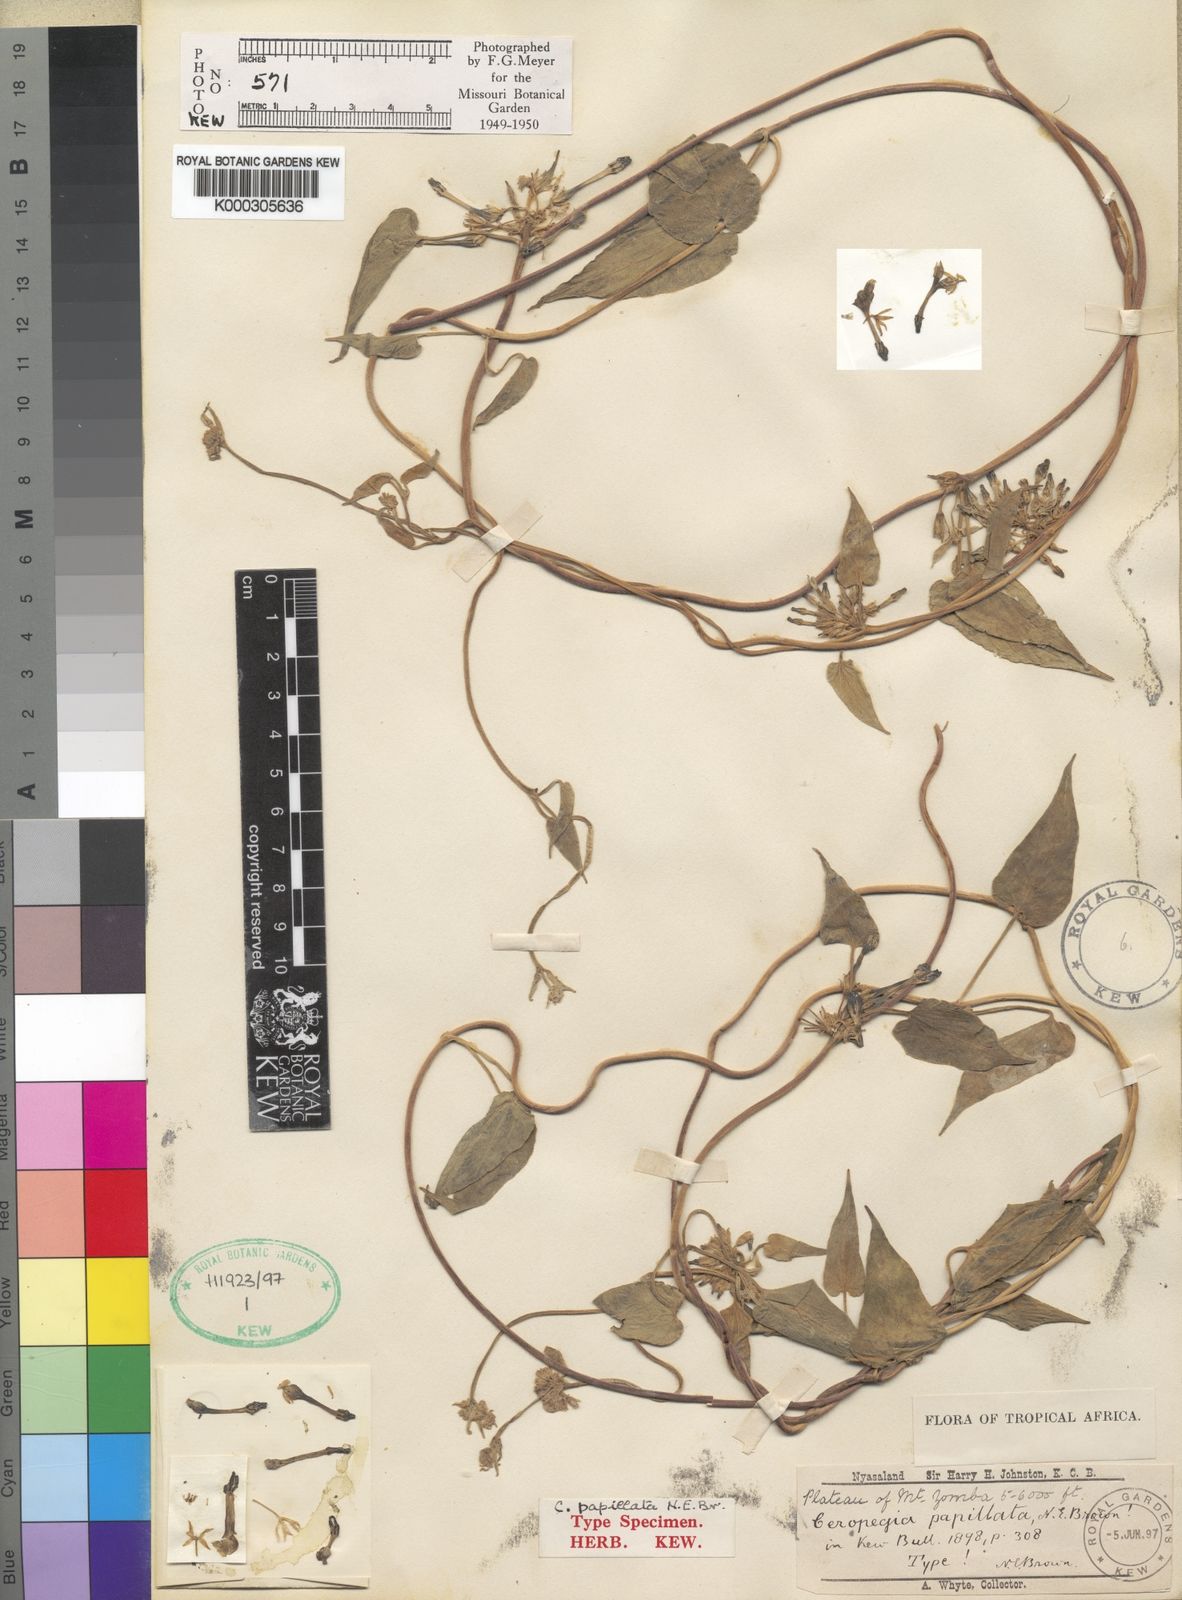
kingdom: Plantae
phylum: Tracheophyta
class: Magnoliopsida
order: Gentianales
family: Apocynaceae
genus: Ceropegia
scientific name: Ceropegia papillata
